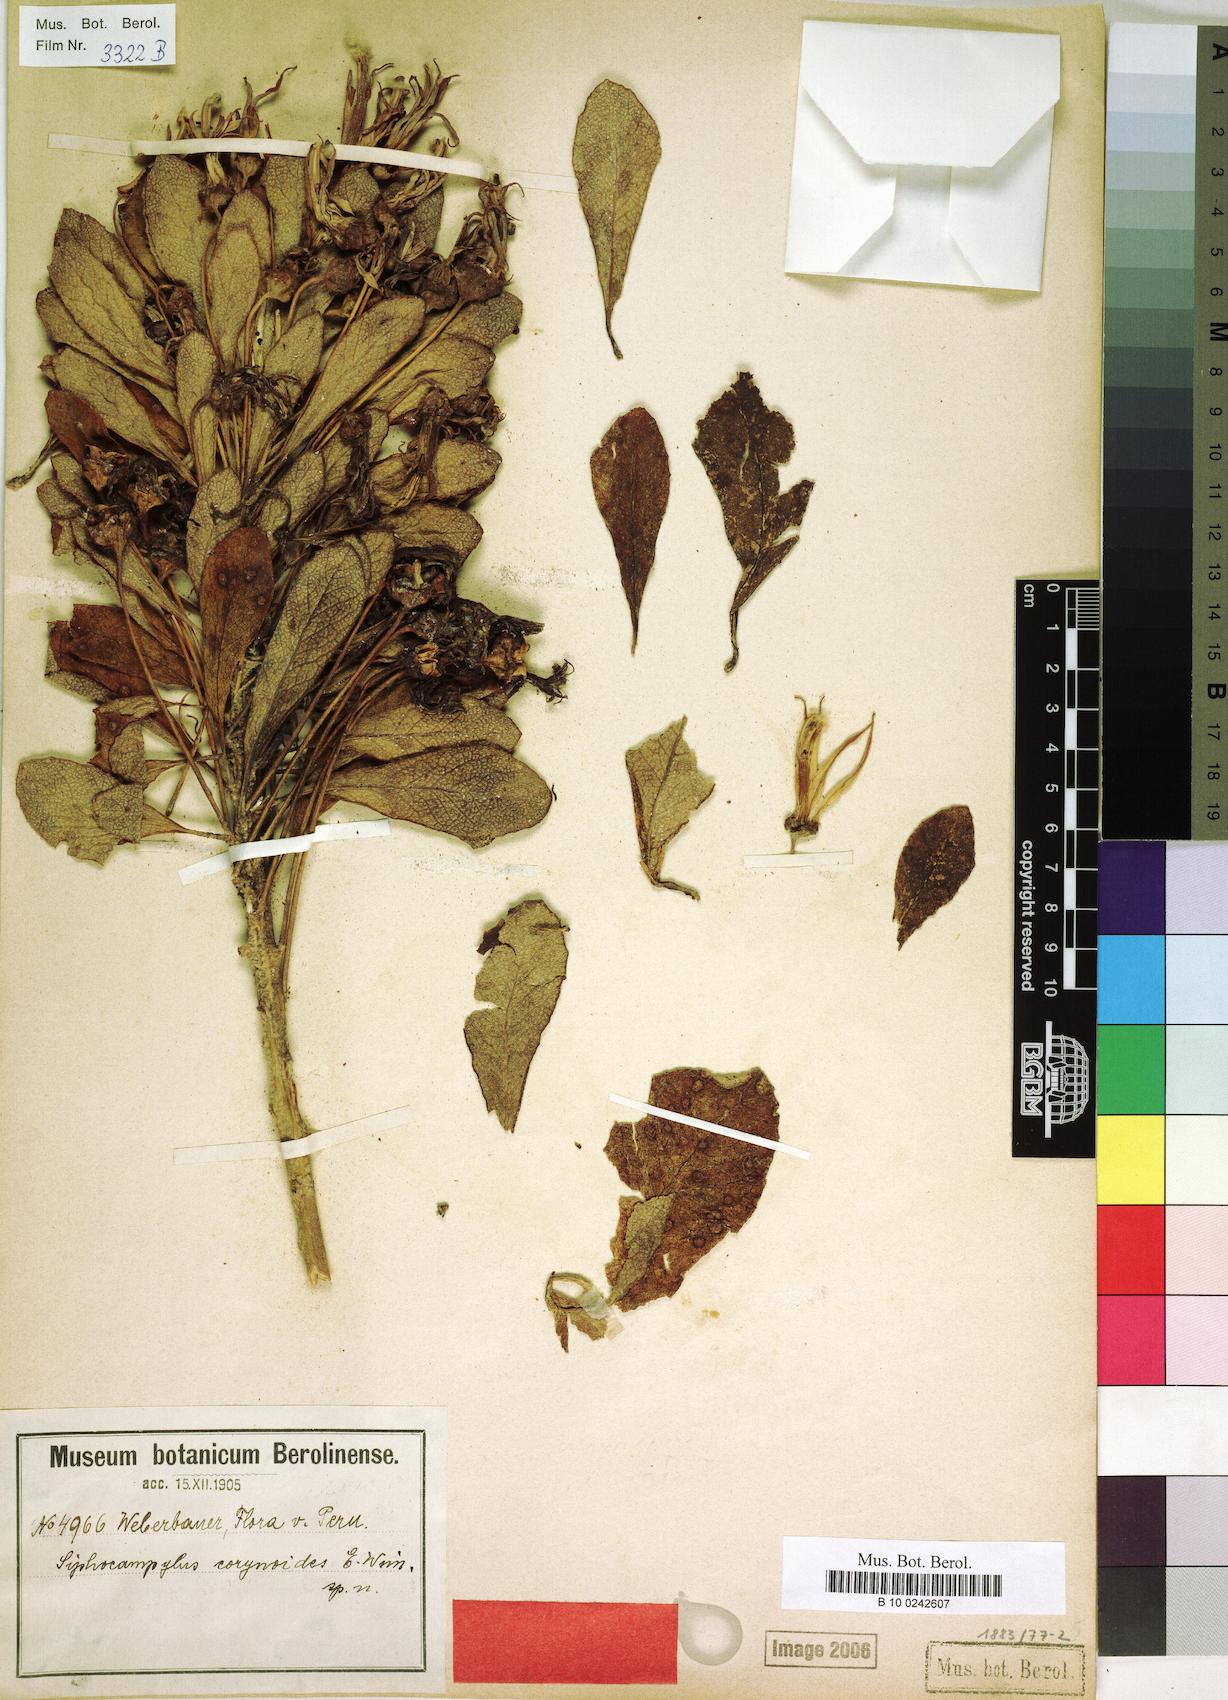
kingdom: Plantae
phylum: Tracheophyta
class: Magnoliopsida
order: Asterales
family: Campanulaceae
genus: Siphocampylus
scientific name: Siphocampylus corynoides
